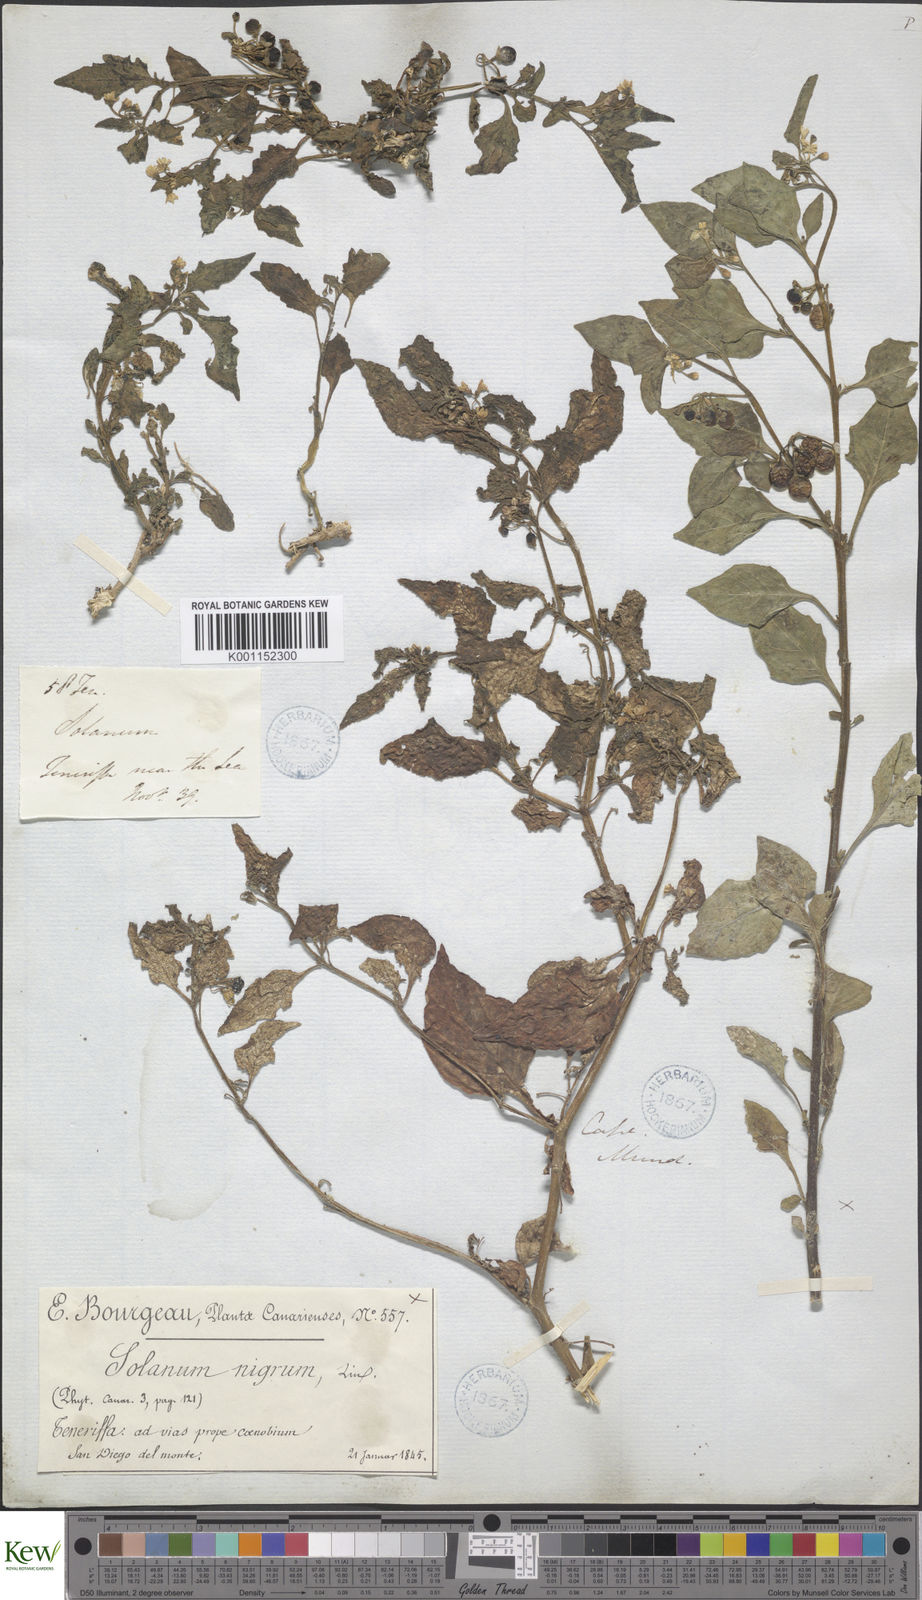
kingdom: Plantae
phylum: Tracheophyta
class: Magnoliopsida
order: Solanales
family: Solanaceae
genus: Solanum
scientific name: Solanum nigrum
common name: Black nightshade
